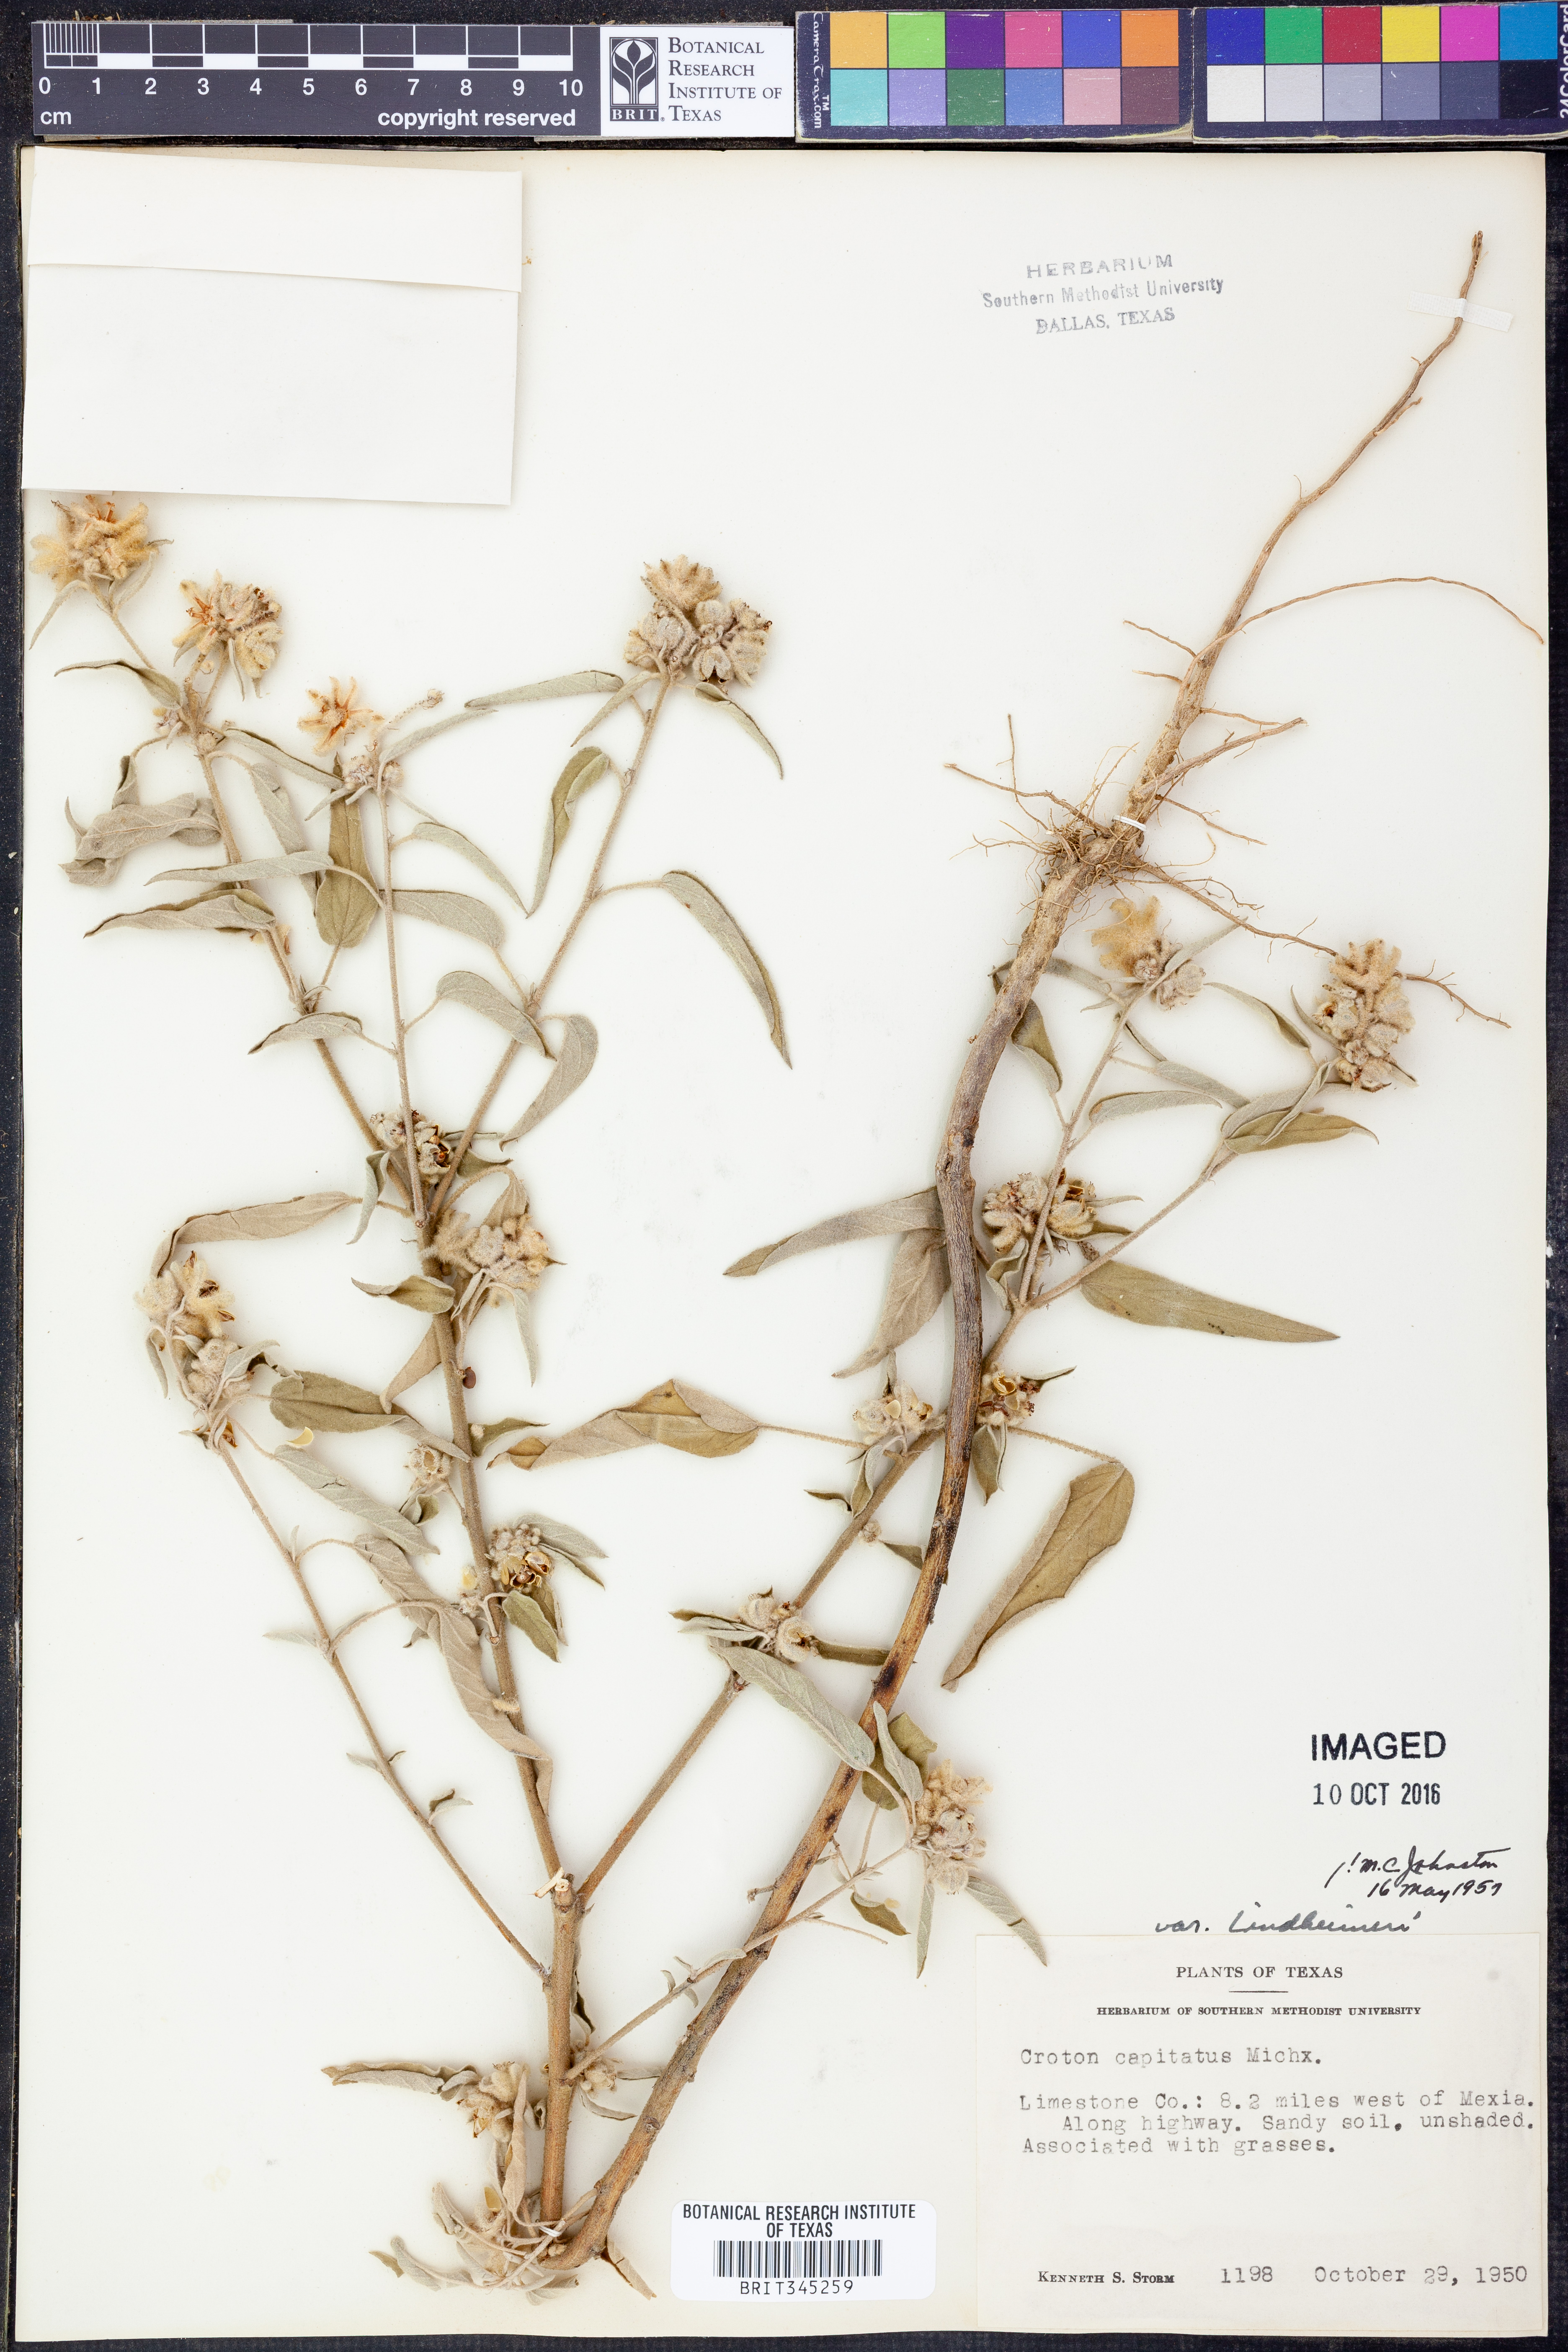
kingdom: Plantae
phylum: Tracheophyta
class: Magnoliopsida
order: Malpighiales
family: Euphorbiaceae
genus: Croton
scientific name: Croton lindheimeri
